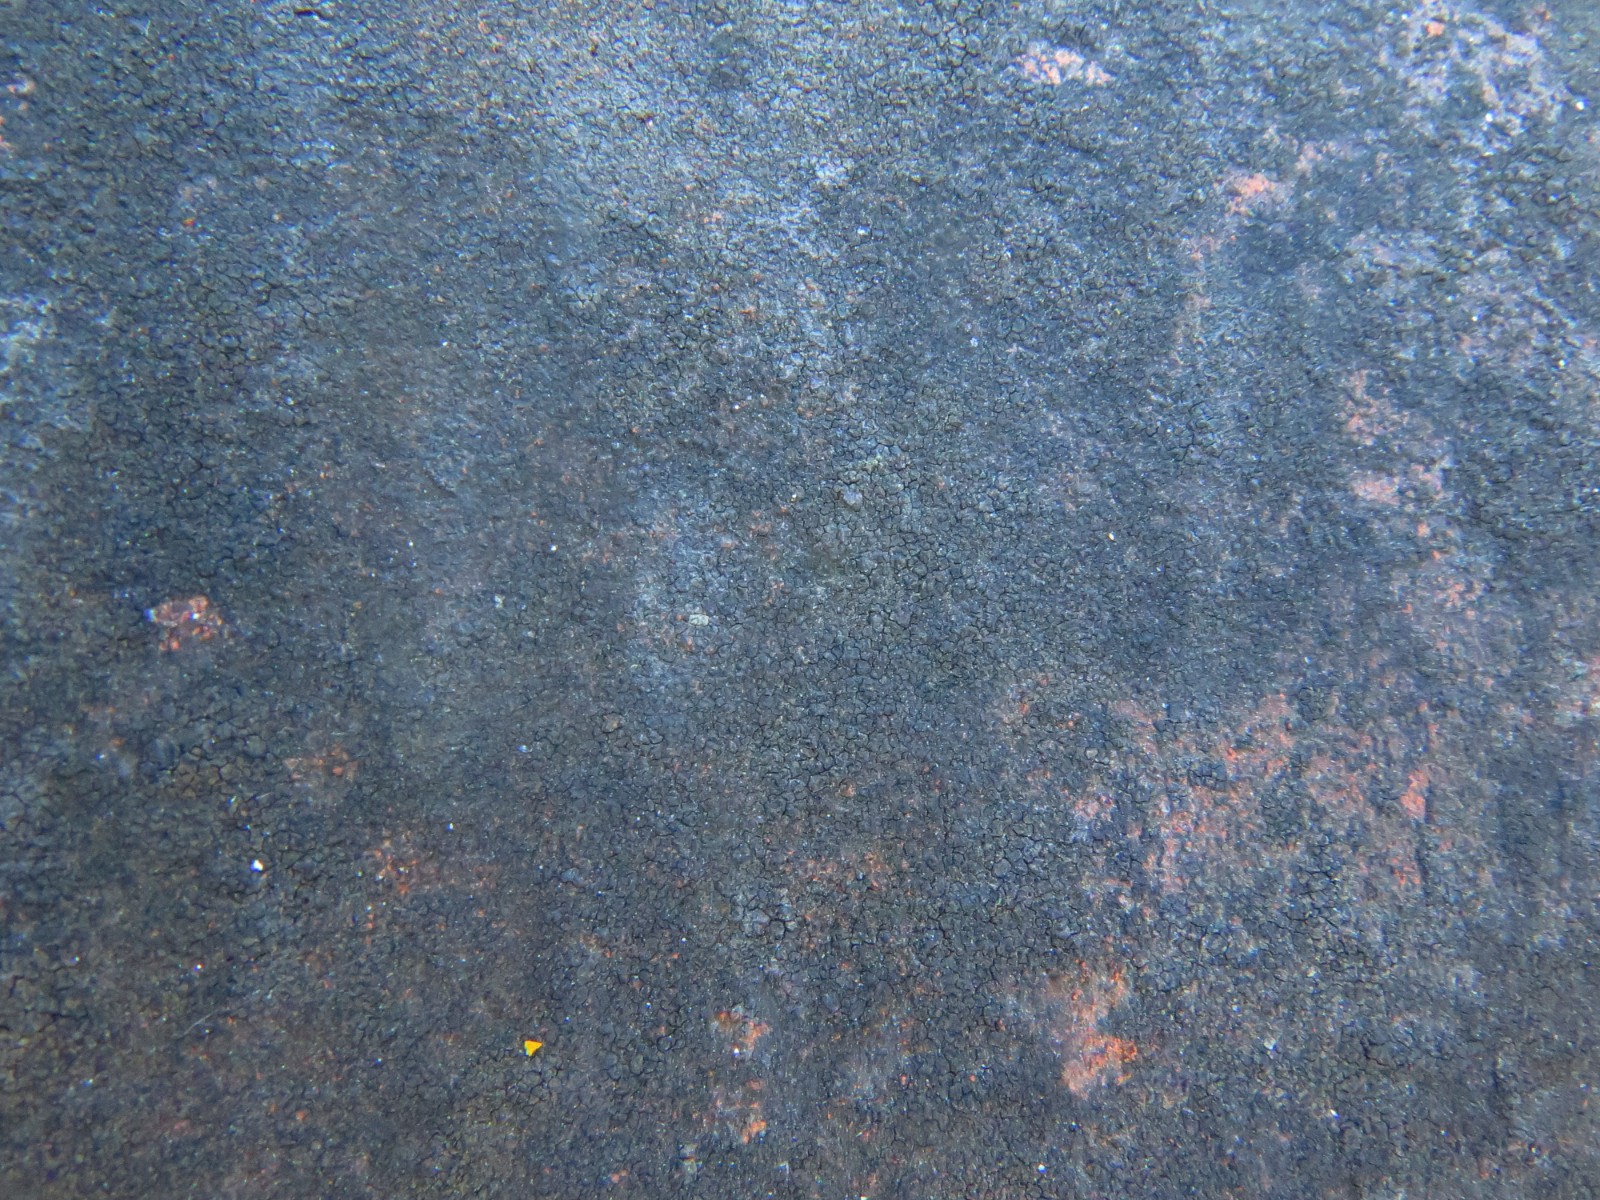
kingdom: Fungi
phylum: Ascomycota
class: Eurotiomycetes
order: Verrucariales
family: Verrucariaceae
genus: Verrucaria
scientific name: Verrucaria nigrescens
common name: sortbrun vortelav
